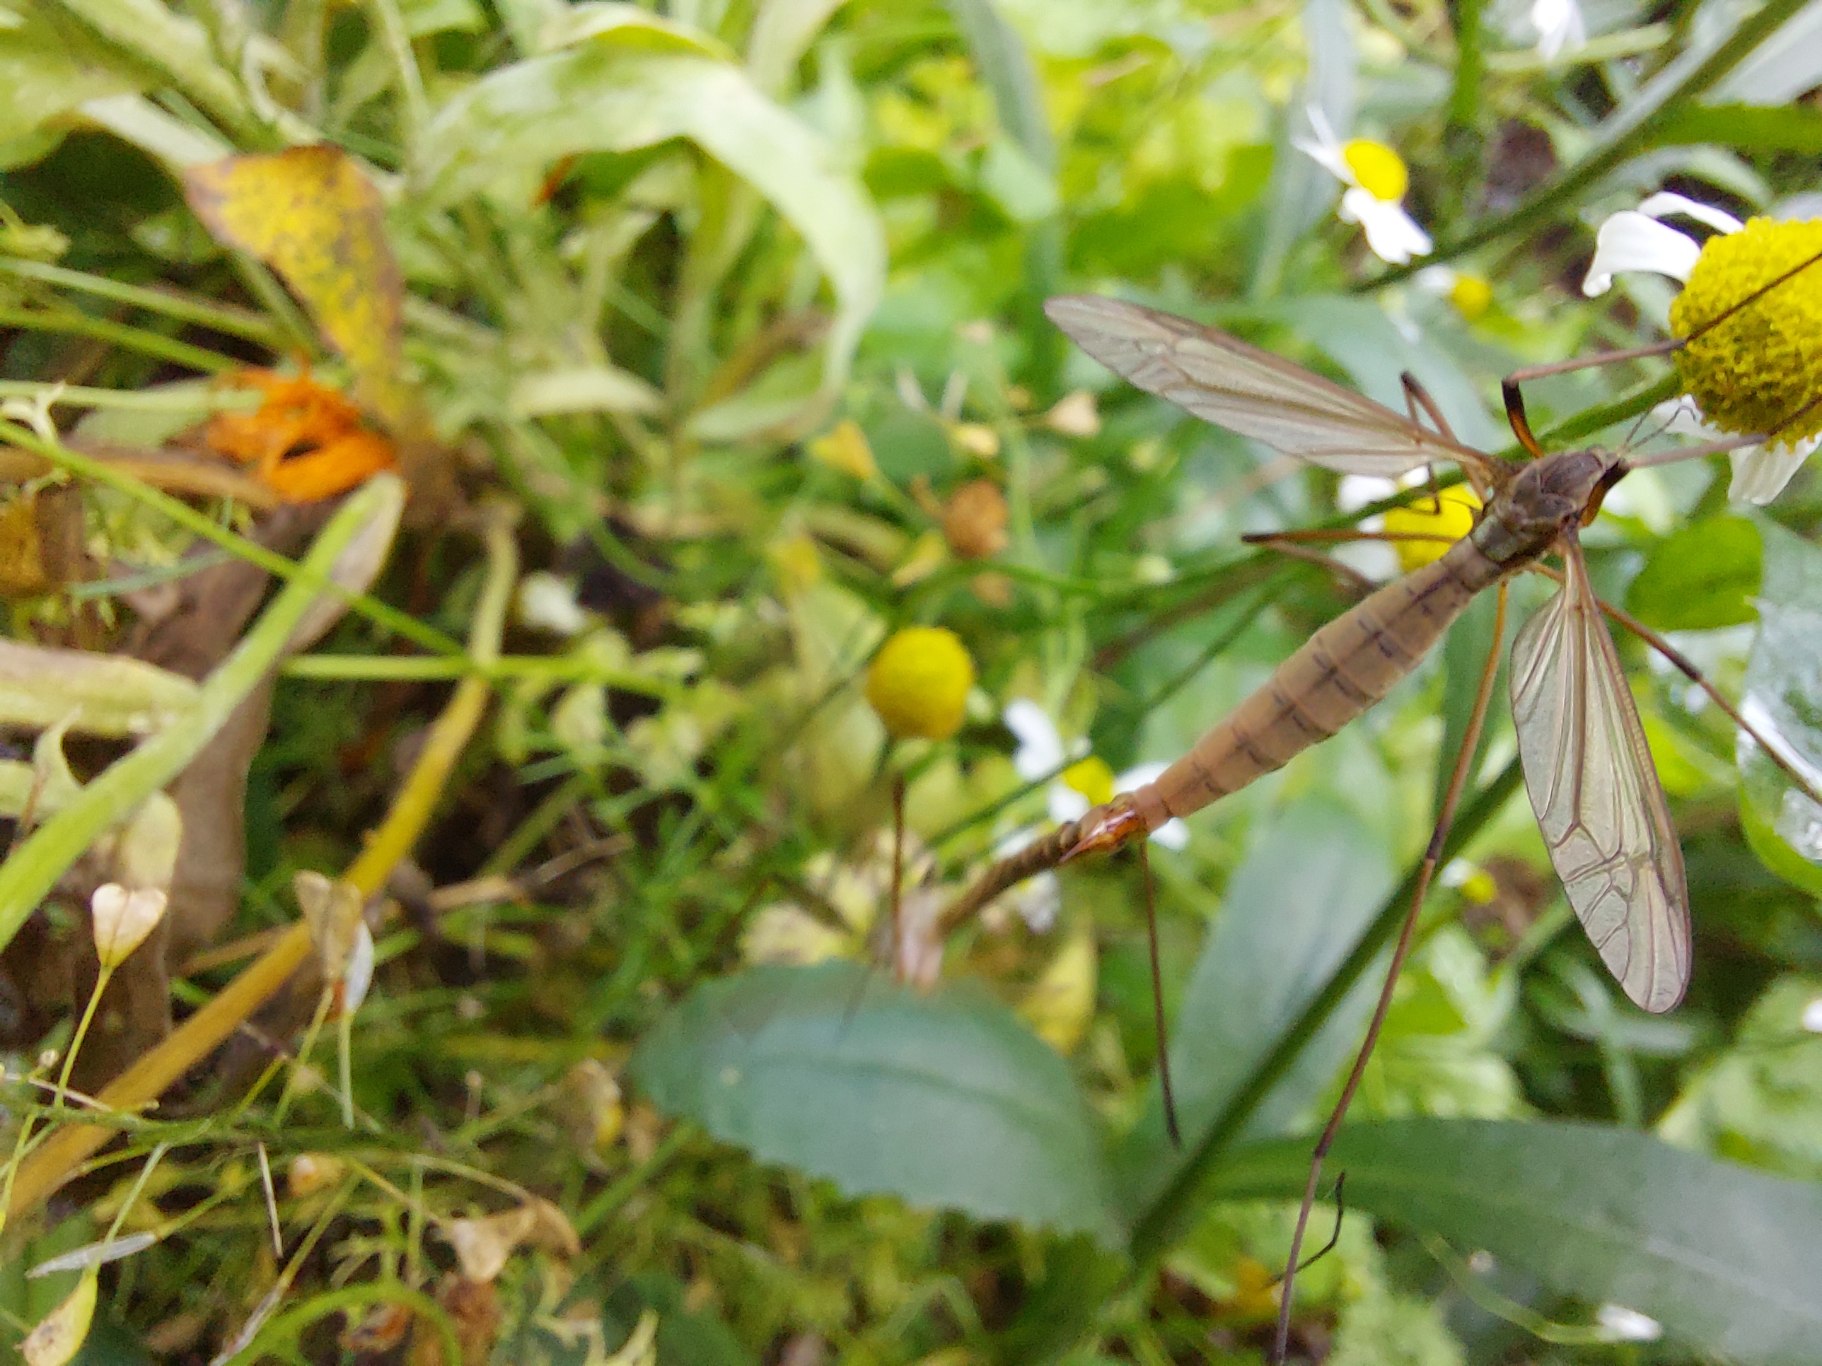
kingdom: Animalia
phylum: Arthropoda
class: Insecta
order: Diptera
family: Tipulidae
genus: Tipula
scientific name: Tipula paludosa
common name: Mosestankelben
